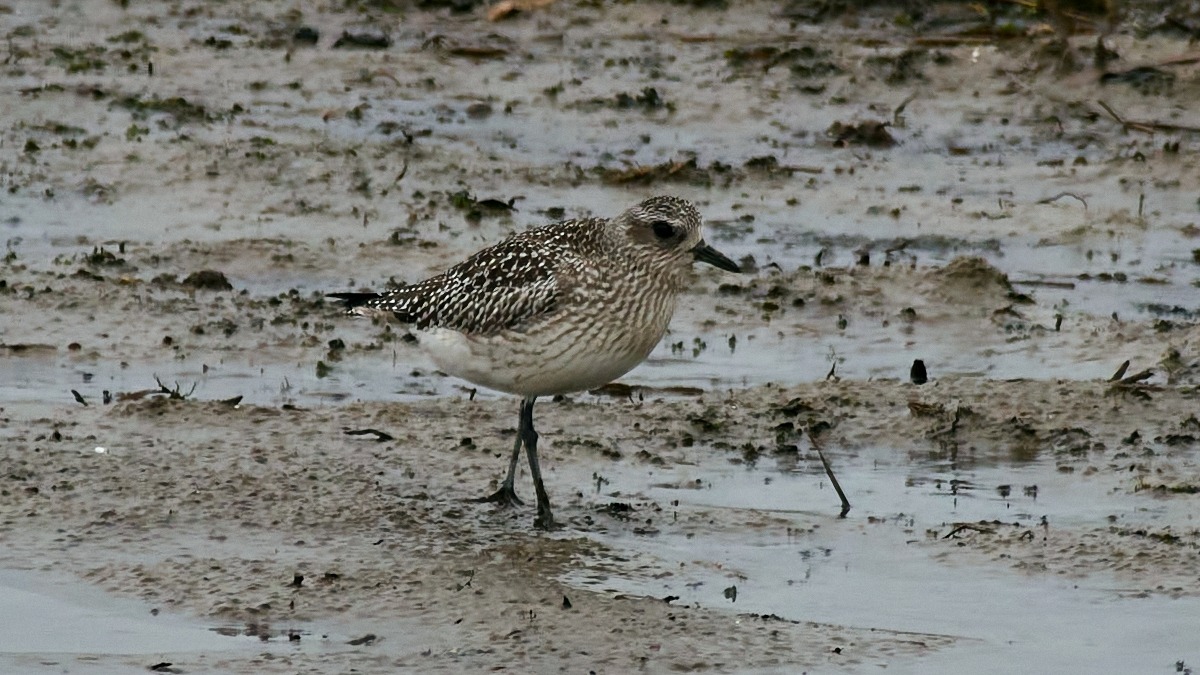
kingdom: Animalia
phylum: Chordata
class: Aves
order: Charadriiformes
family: Charadriidae
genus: Pluvialis
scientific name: Pluvialis squatarola
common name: Strandhjejle
